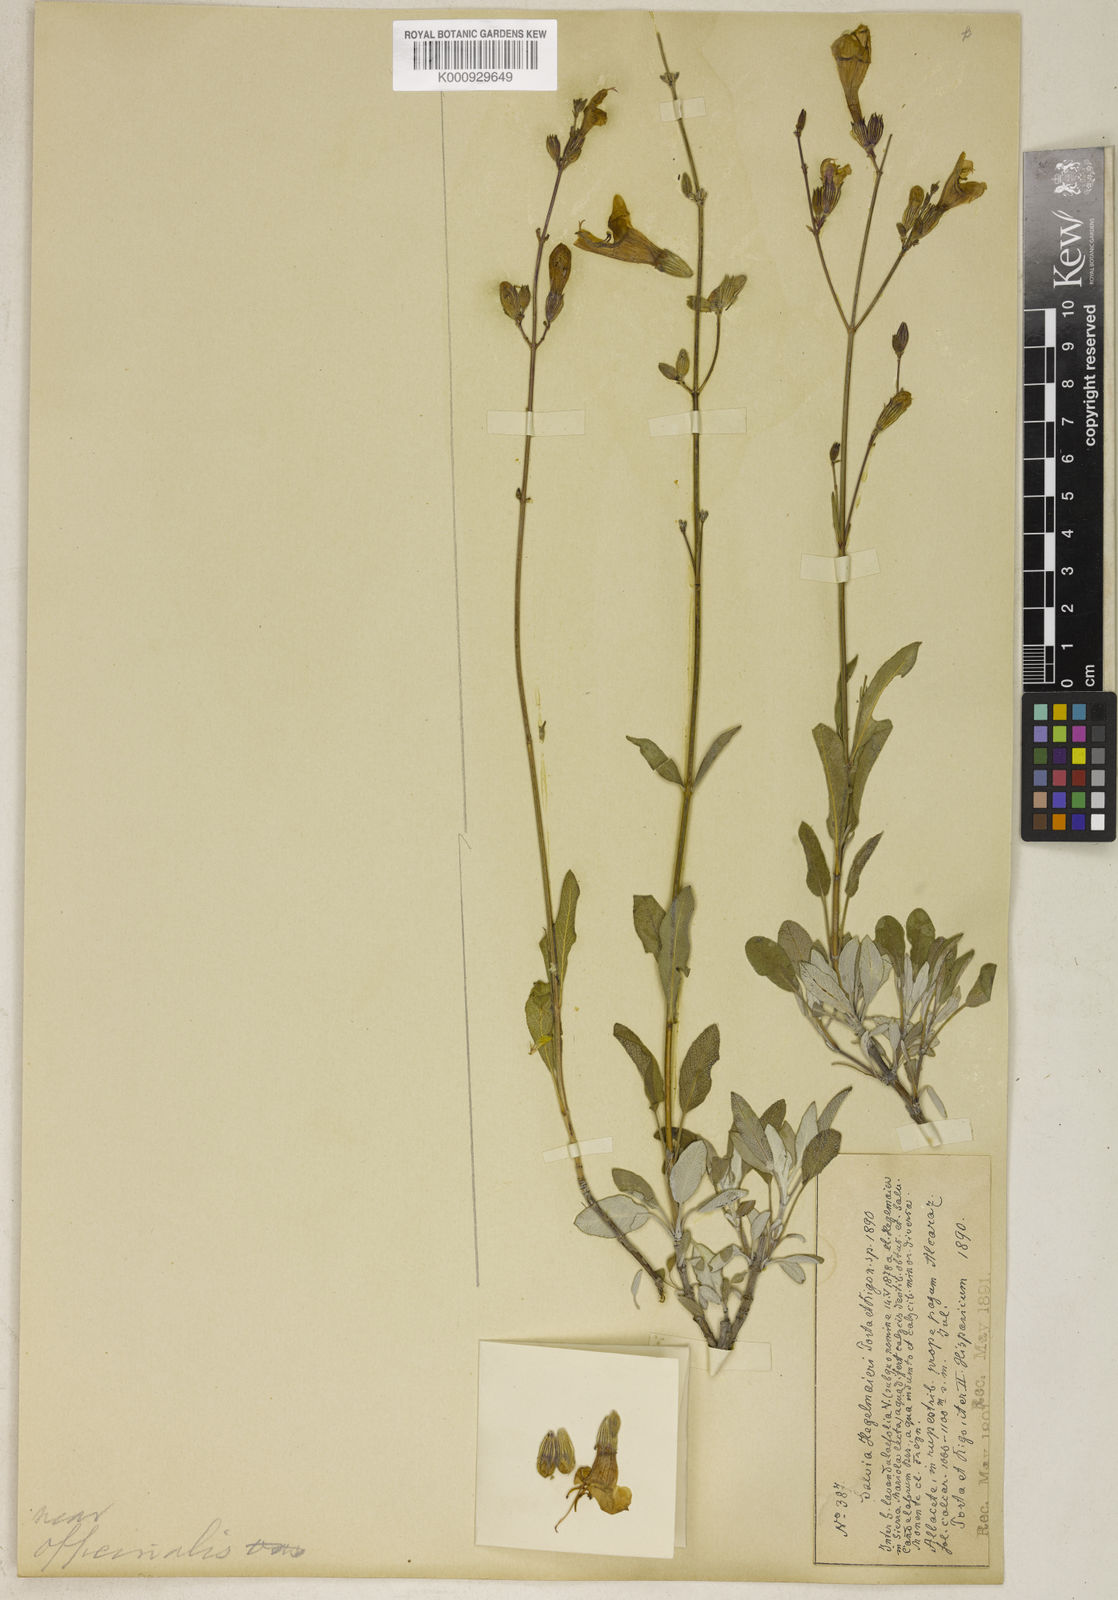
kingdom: Plantae
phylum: Tracheophyta
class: Magnoliopsida
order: Lamiales
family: Lamiaceae
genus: Salvia
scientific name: Salvia hegelmaieri
